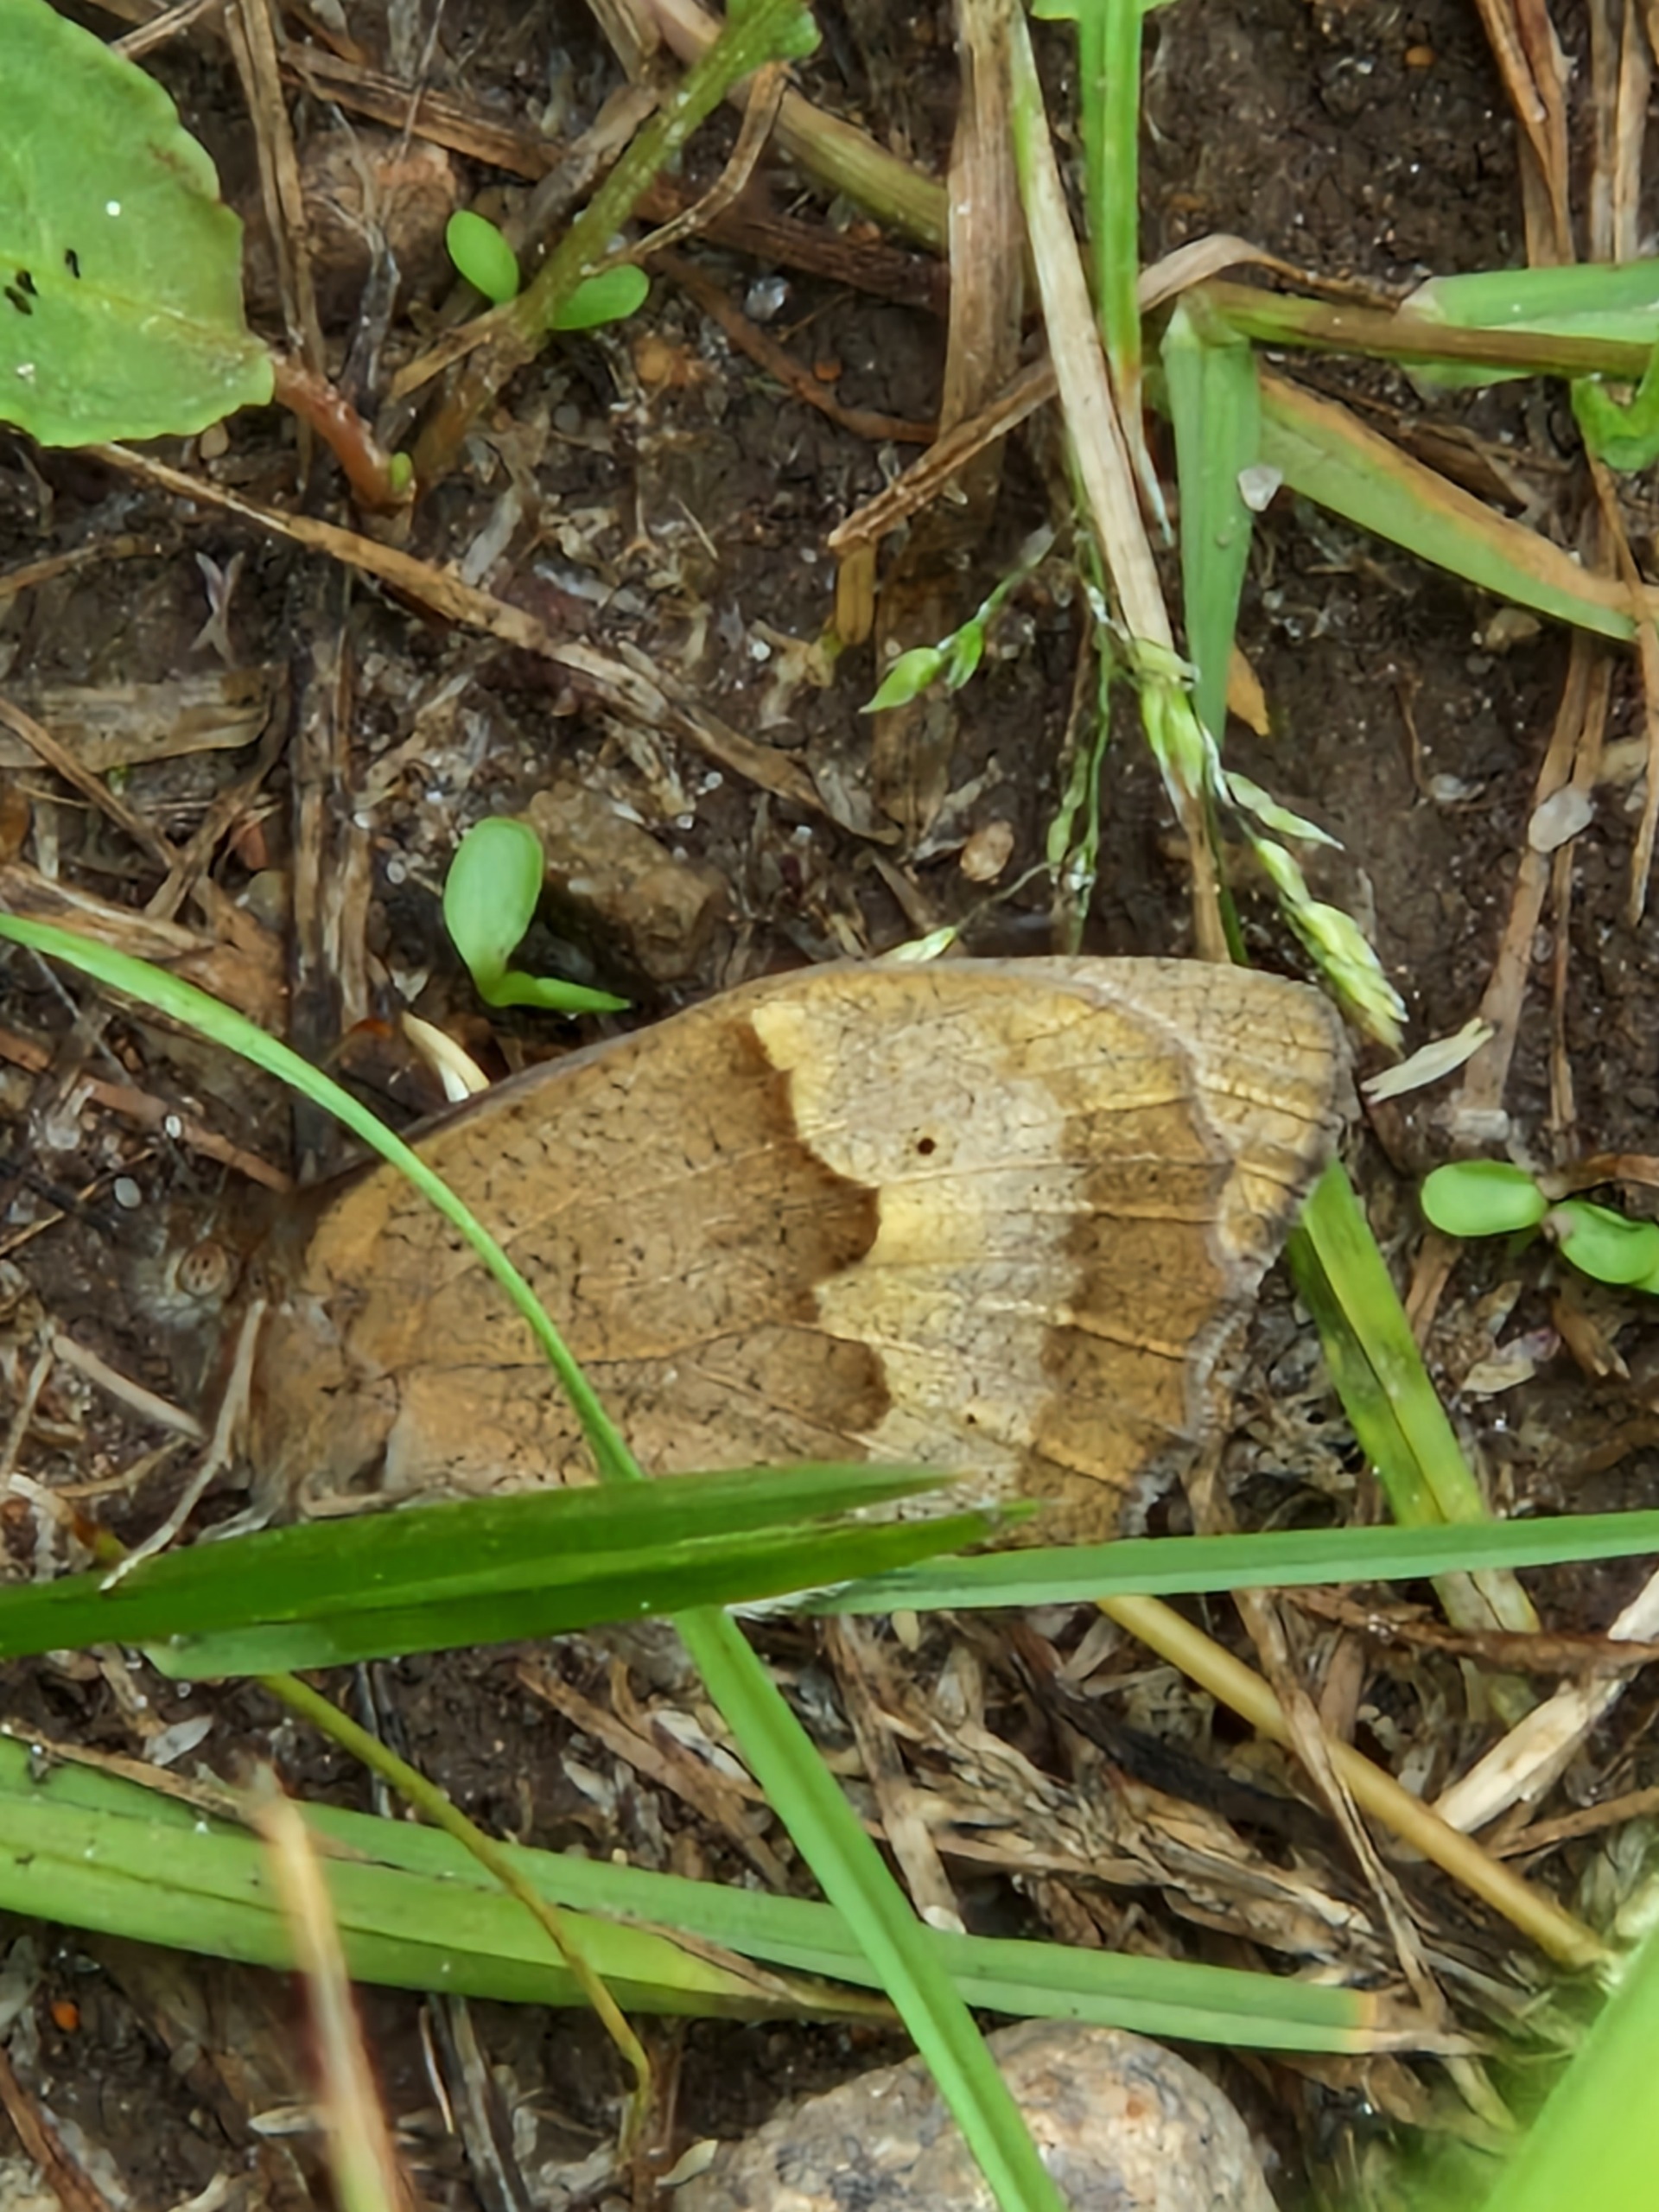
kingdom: Animalia
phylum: Arthropoda
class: Insecta
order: Lepidoptera
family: Nymphalidae
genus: Maniola
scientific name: Maniola jurtina
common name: Græsrandøje
